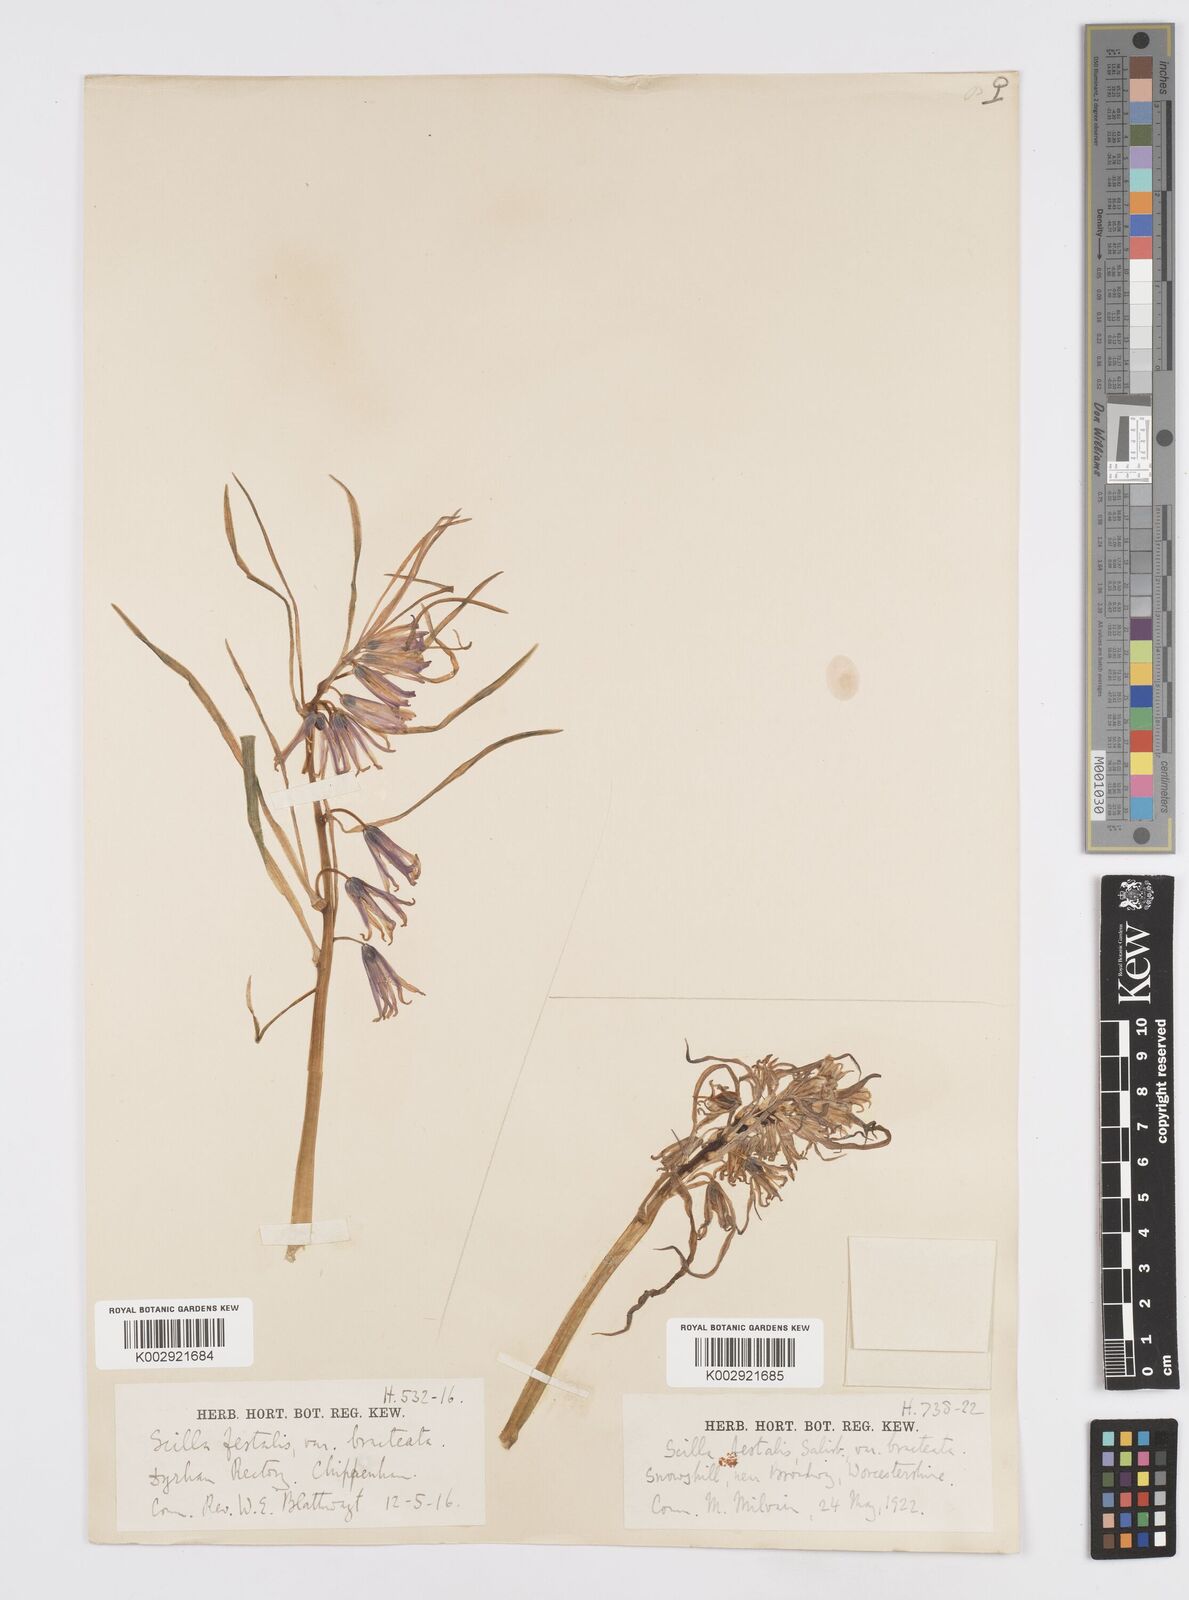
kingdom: Plantae
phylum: Tracheophyta
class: Liliopsida
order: Asparagales
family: Asparagaceae
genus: Hyacinthoides
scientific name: Hyacinthoides
